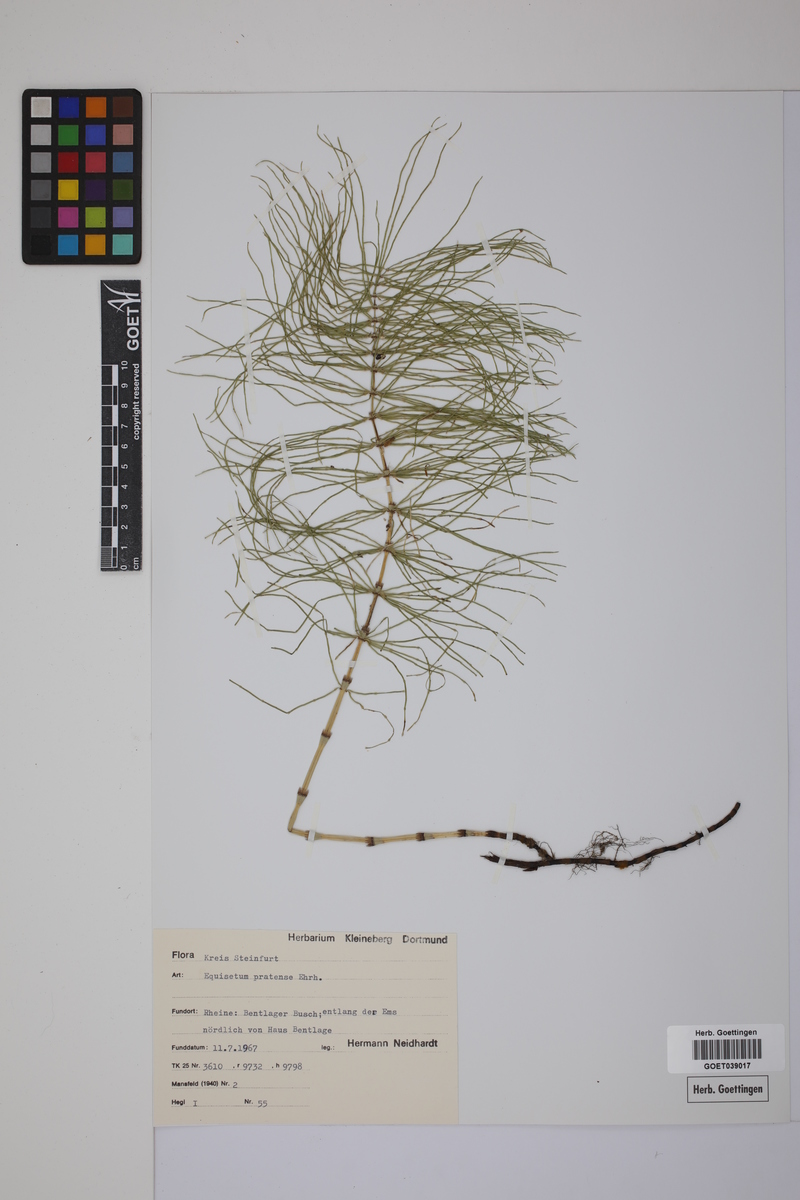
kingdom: Plantae
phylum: Tracheophyta
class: Polypodiopsida
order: Equisetales
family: Equisetaceae
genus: Equisetum
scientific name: Equisetum pratense
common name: Meadow horsetail
